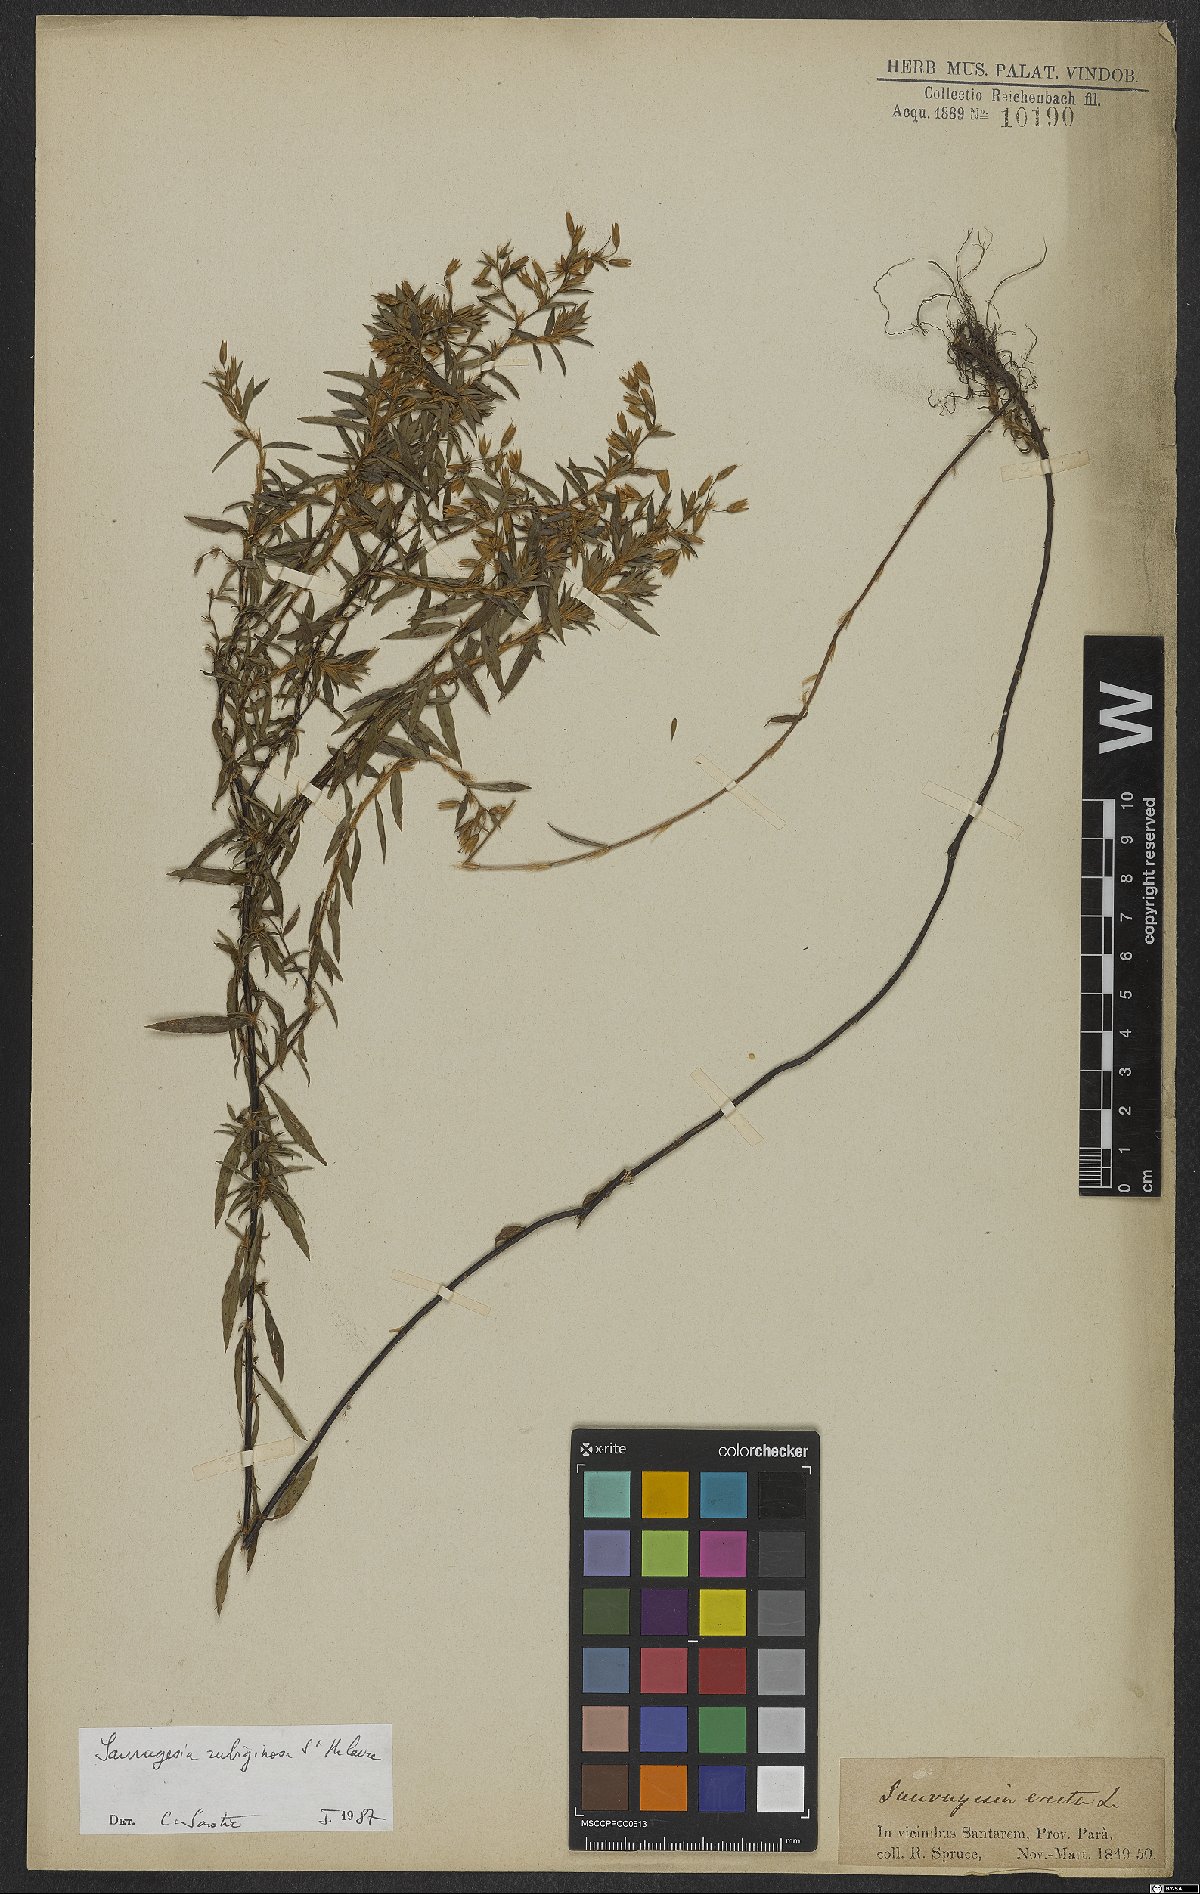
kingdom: Plantae
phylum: Tracheophyta
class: Magnoliopsida
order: Malpighiales
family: Ochnaceae
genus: Sauvagesia
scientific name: Sauvagesia rubiginosa
